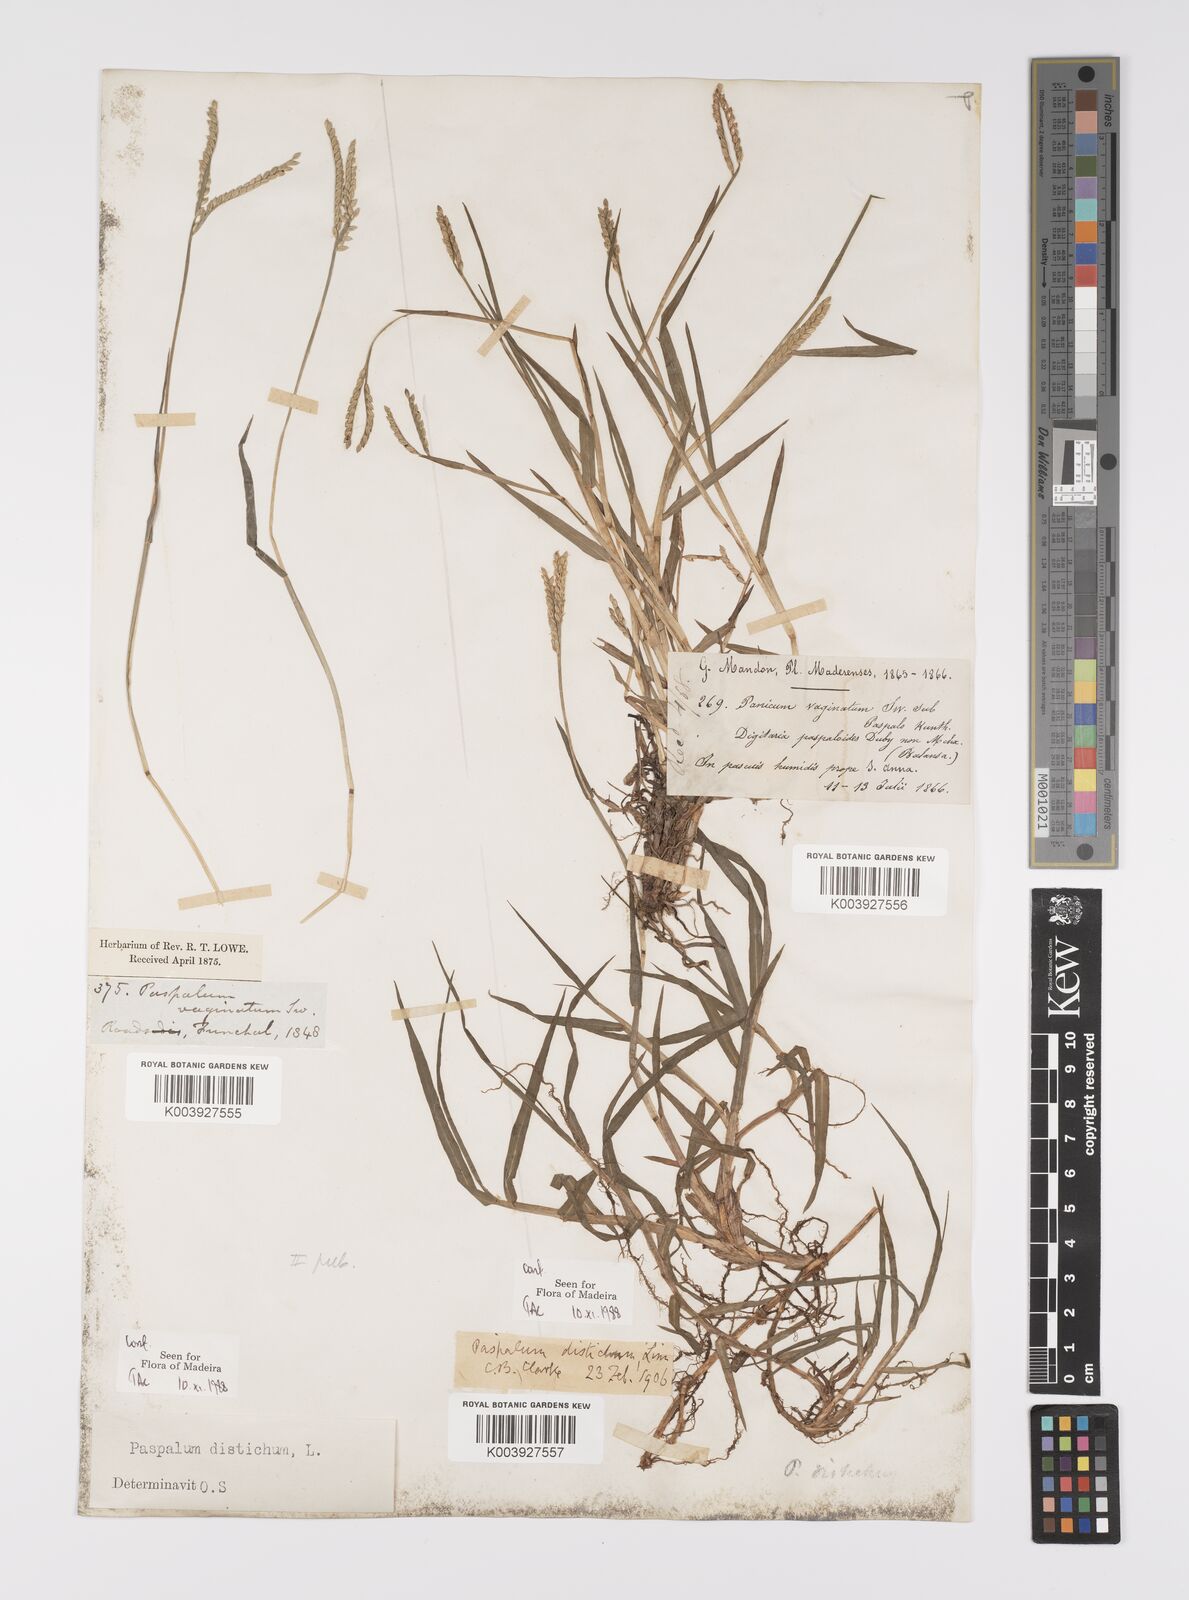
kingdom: Plantae
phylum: Tracheophyta
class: Liliopsida
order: Poales
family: Poaceae
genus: Paspalum
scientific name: Paspalum distichum
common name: Knotgrass
